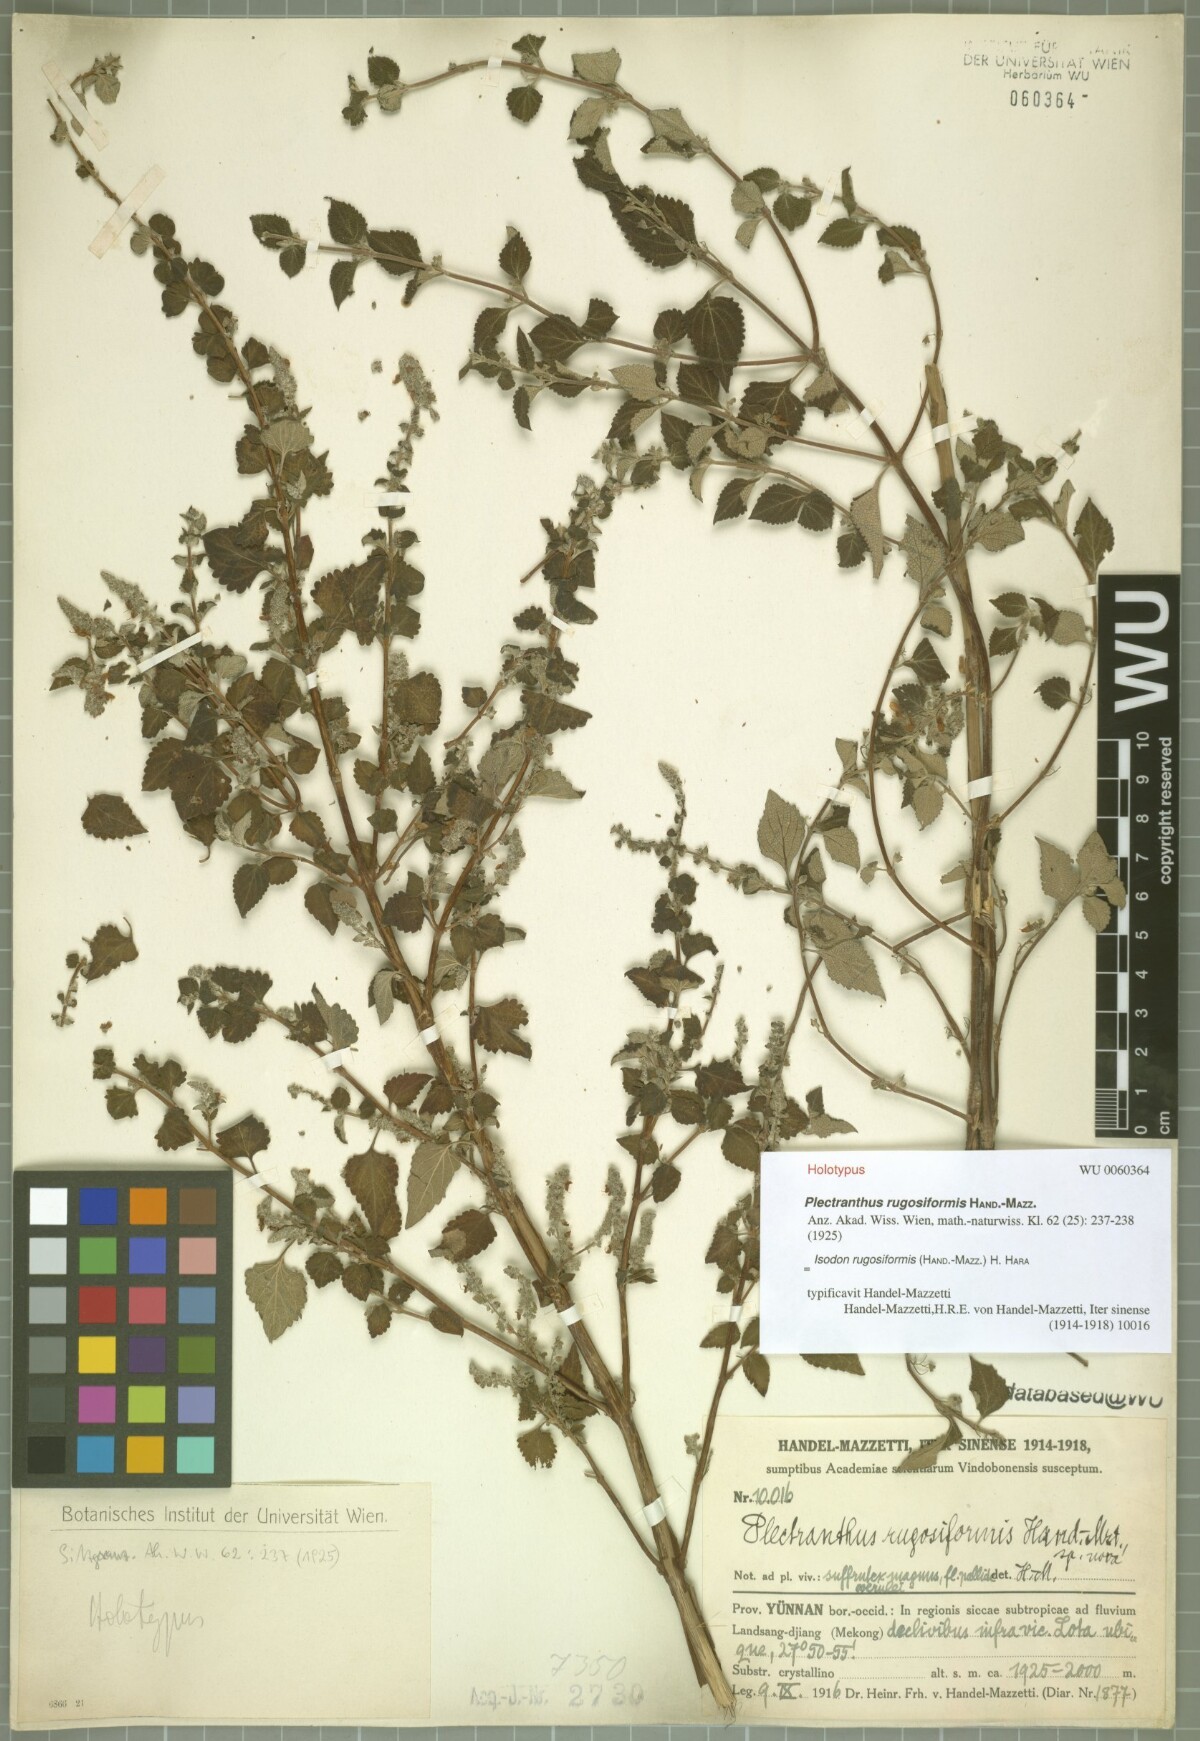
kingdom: Plantae
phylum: Tracheophyta
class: Magnoliopsida
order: Lamiales
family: Lamiaceae
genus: Isodon
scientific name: Isodon rugosiformis
